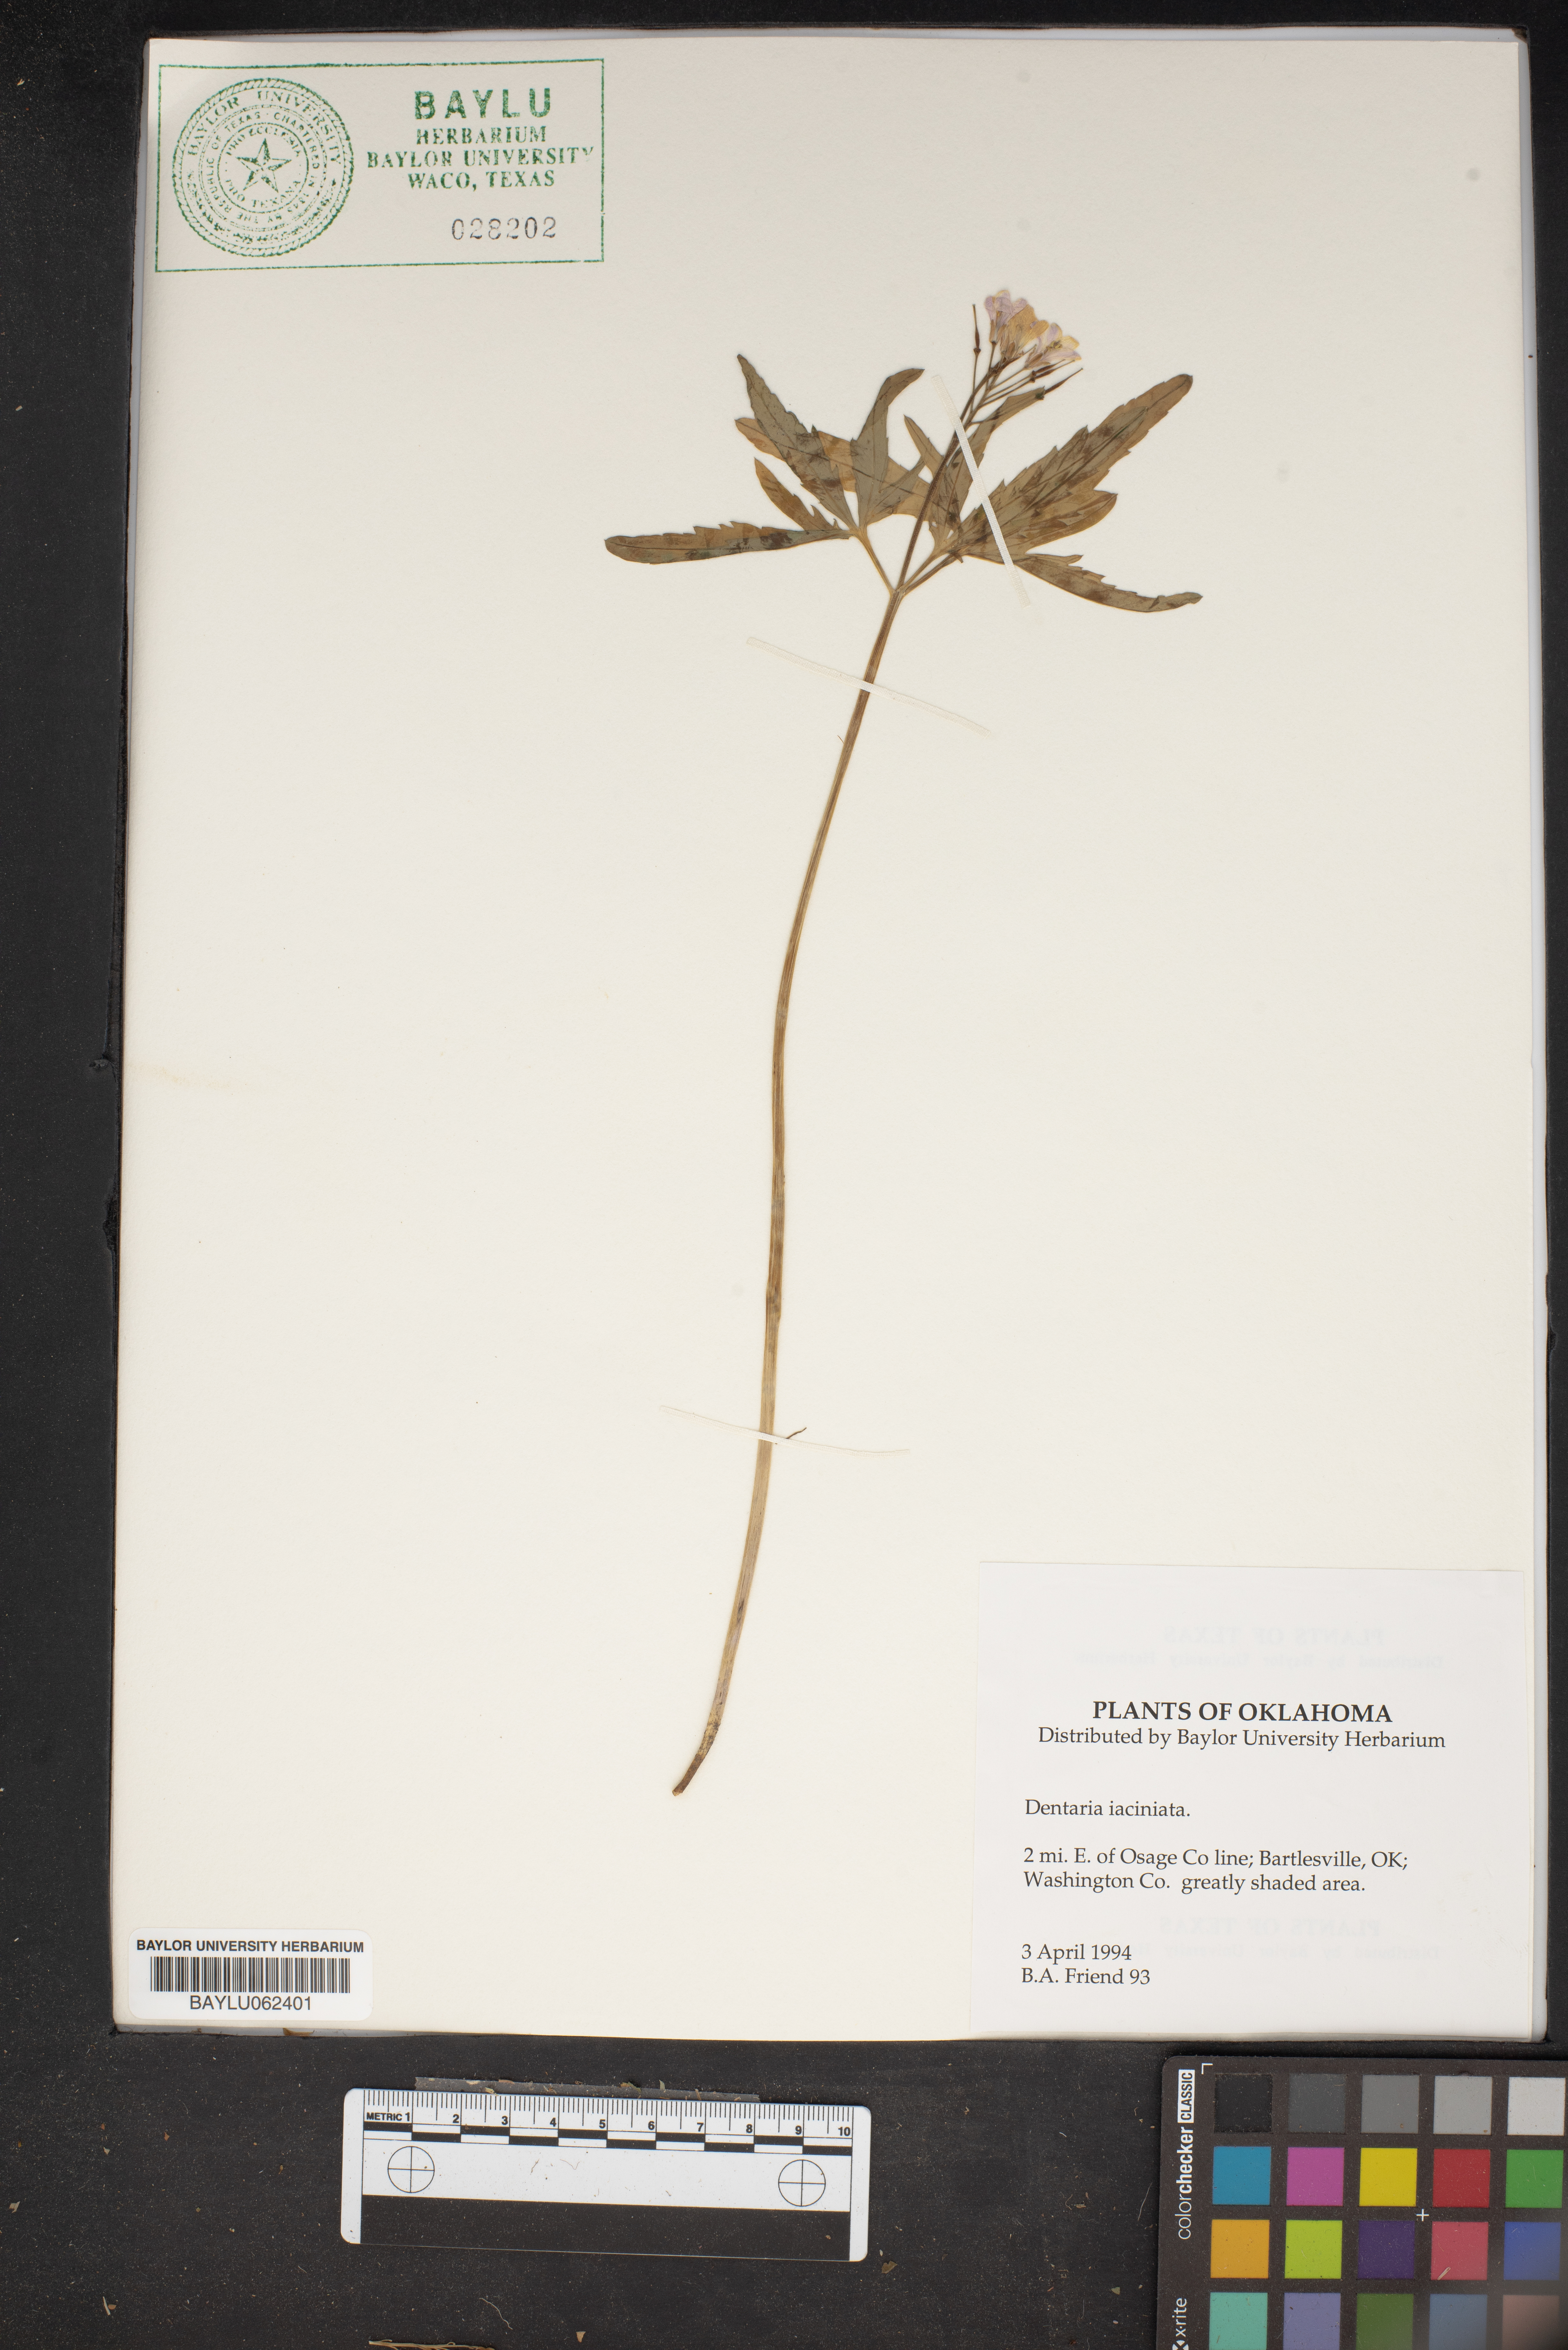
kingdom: Plantae
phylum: Tracheophyta
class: Magnoliopsida
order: Brassicales
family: Brassicaceae
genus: Cardamine
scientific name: Cardamine concatenata
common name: Cut-leaf toothcup
